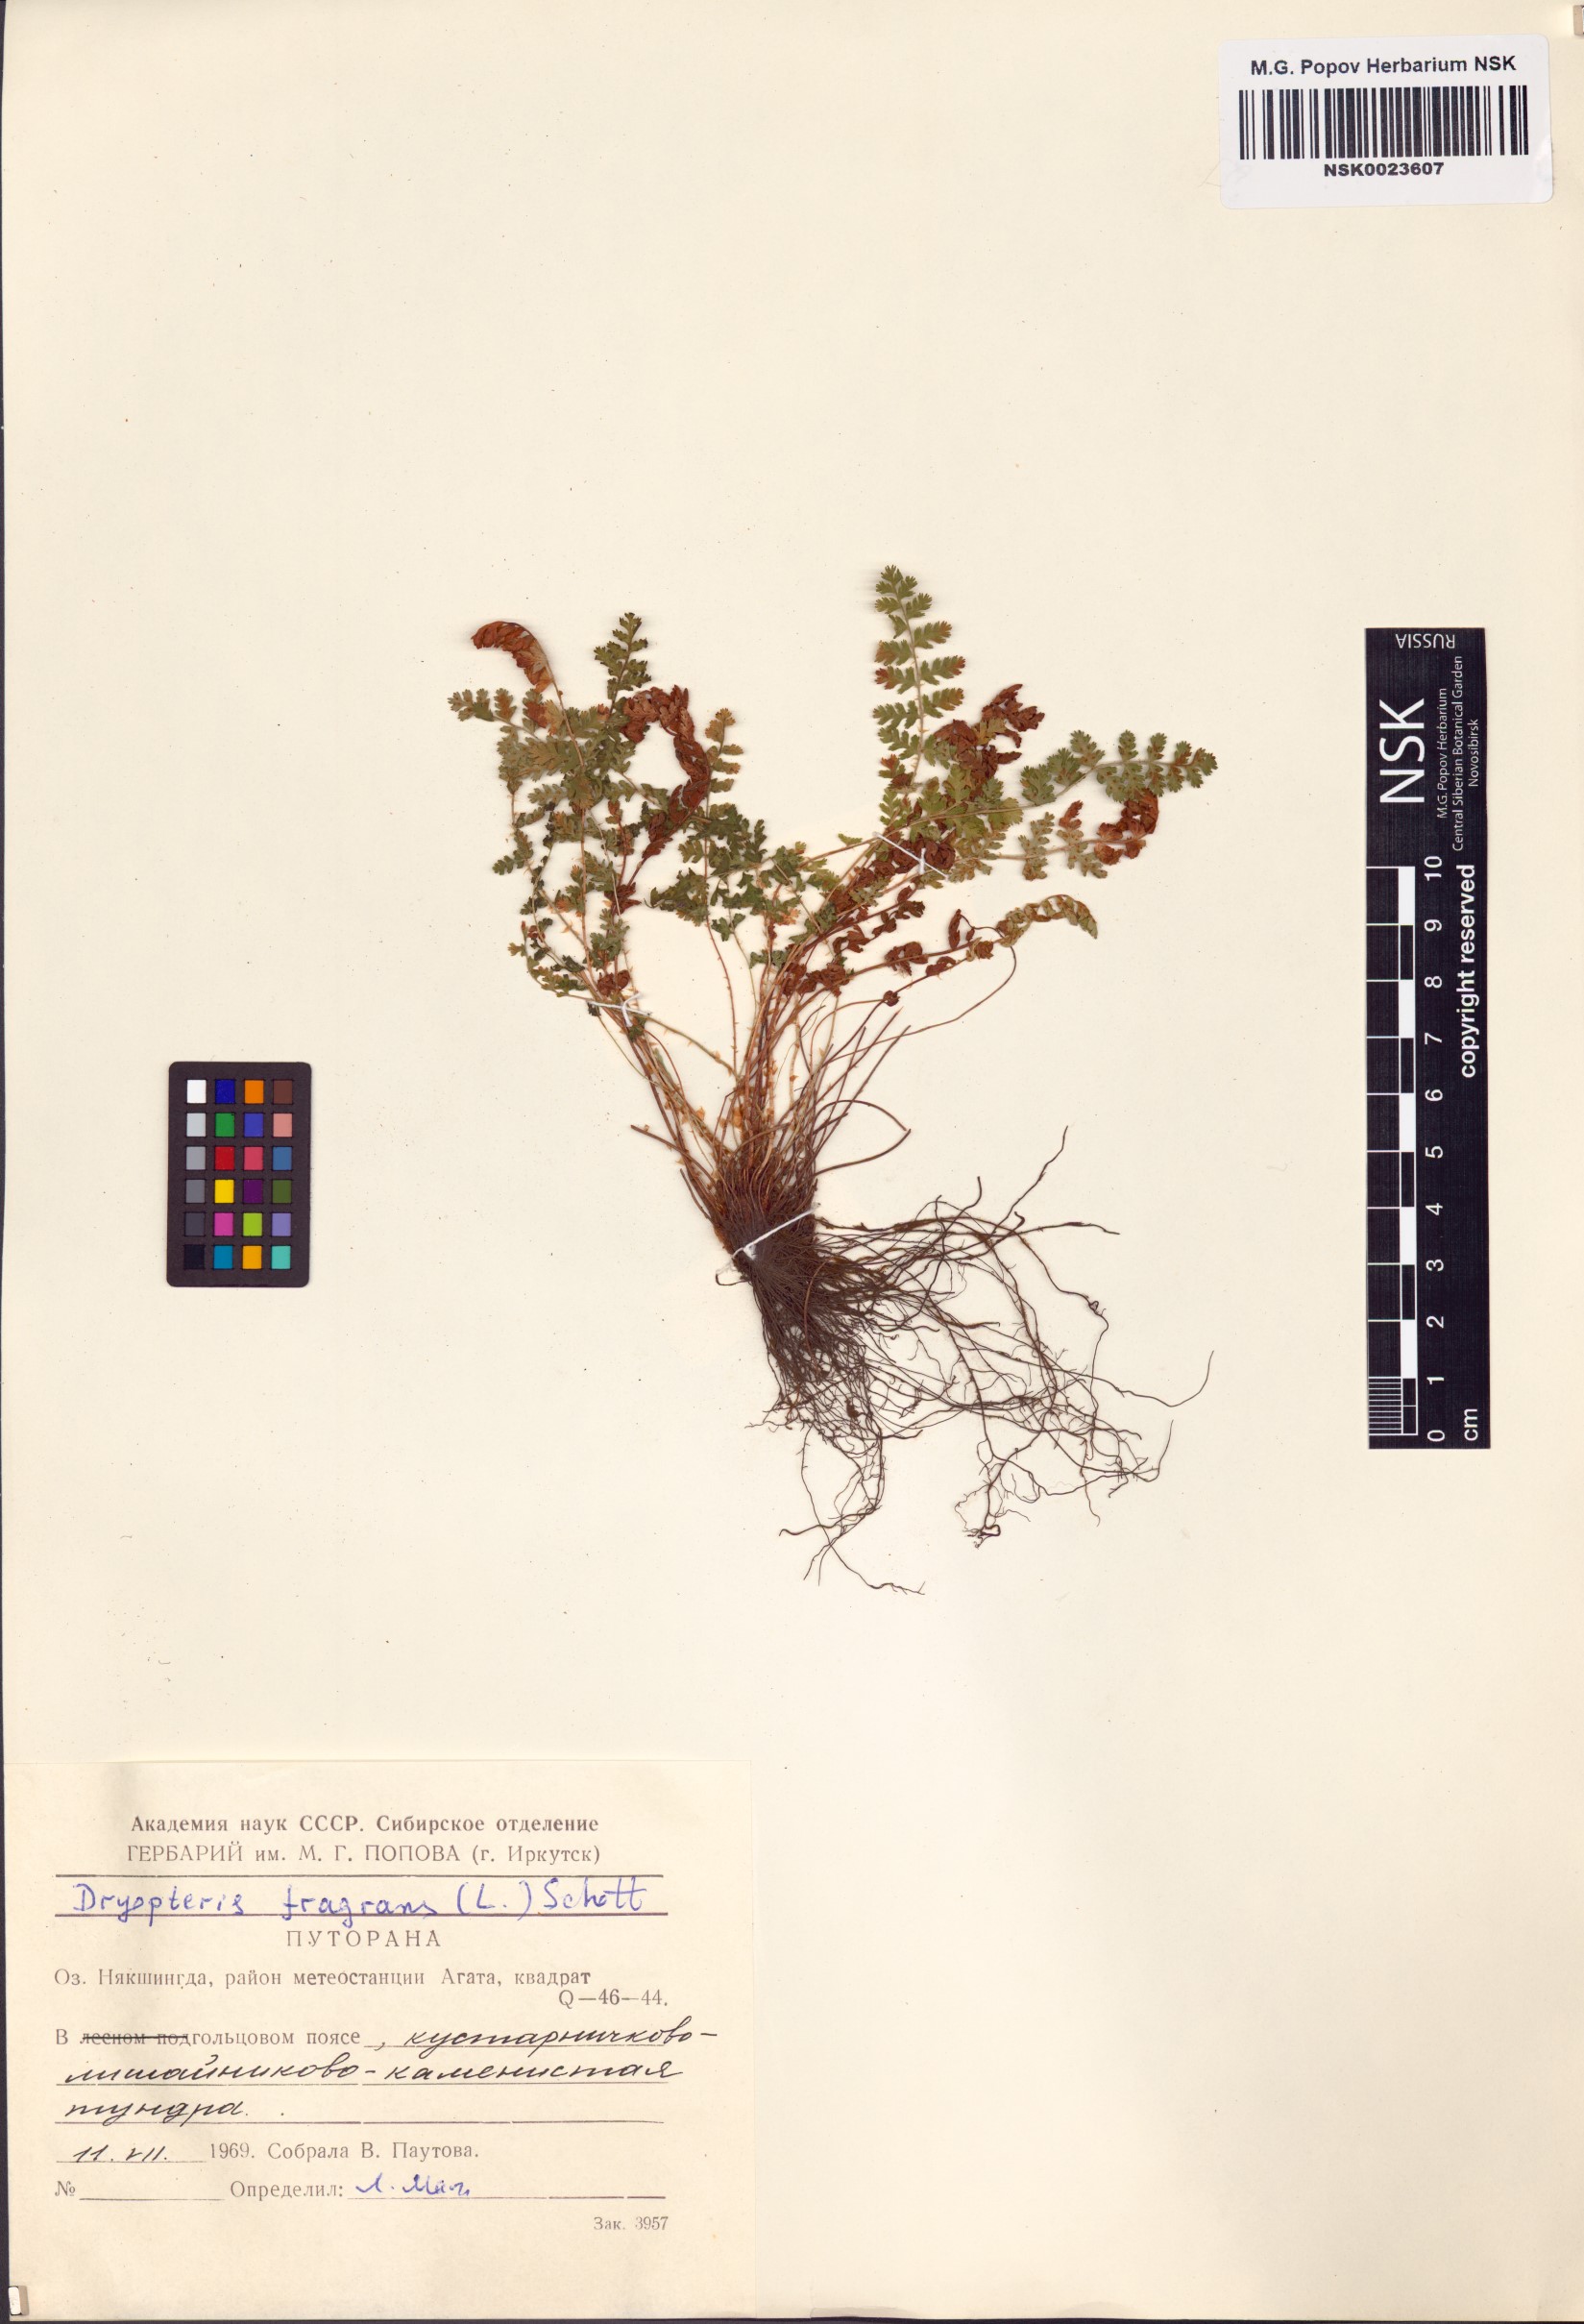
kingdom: Plantae
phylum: Tracheophyta
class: Polypodiopsida
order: Polypodiales
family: Dryopteridaceae
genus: Dryopteris
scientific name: Dryopteris fragrans
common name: Fragrant wood fern
